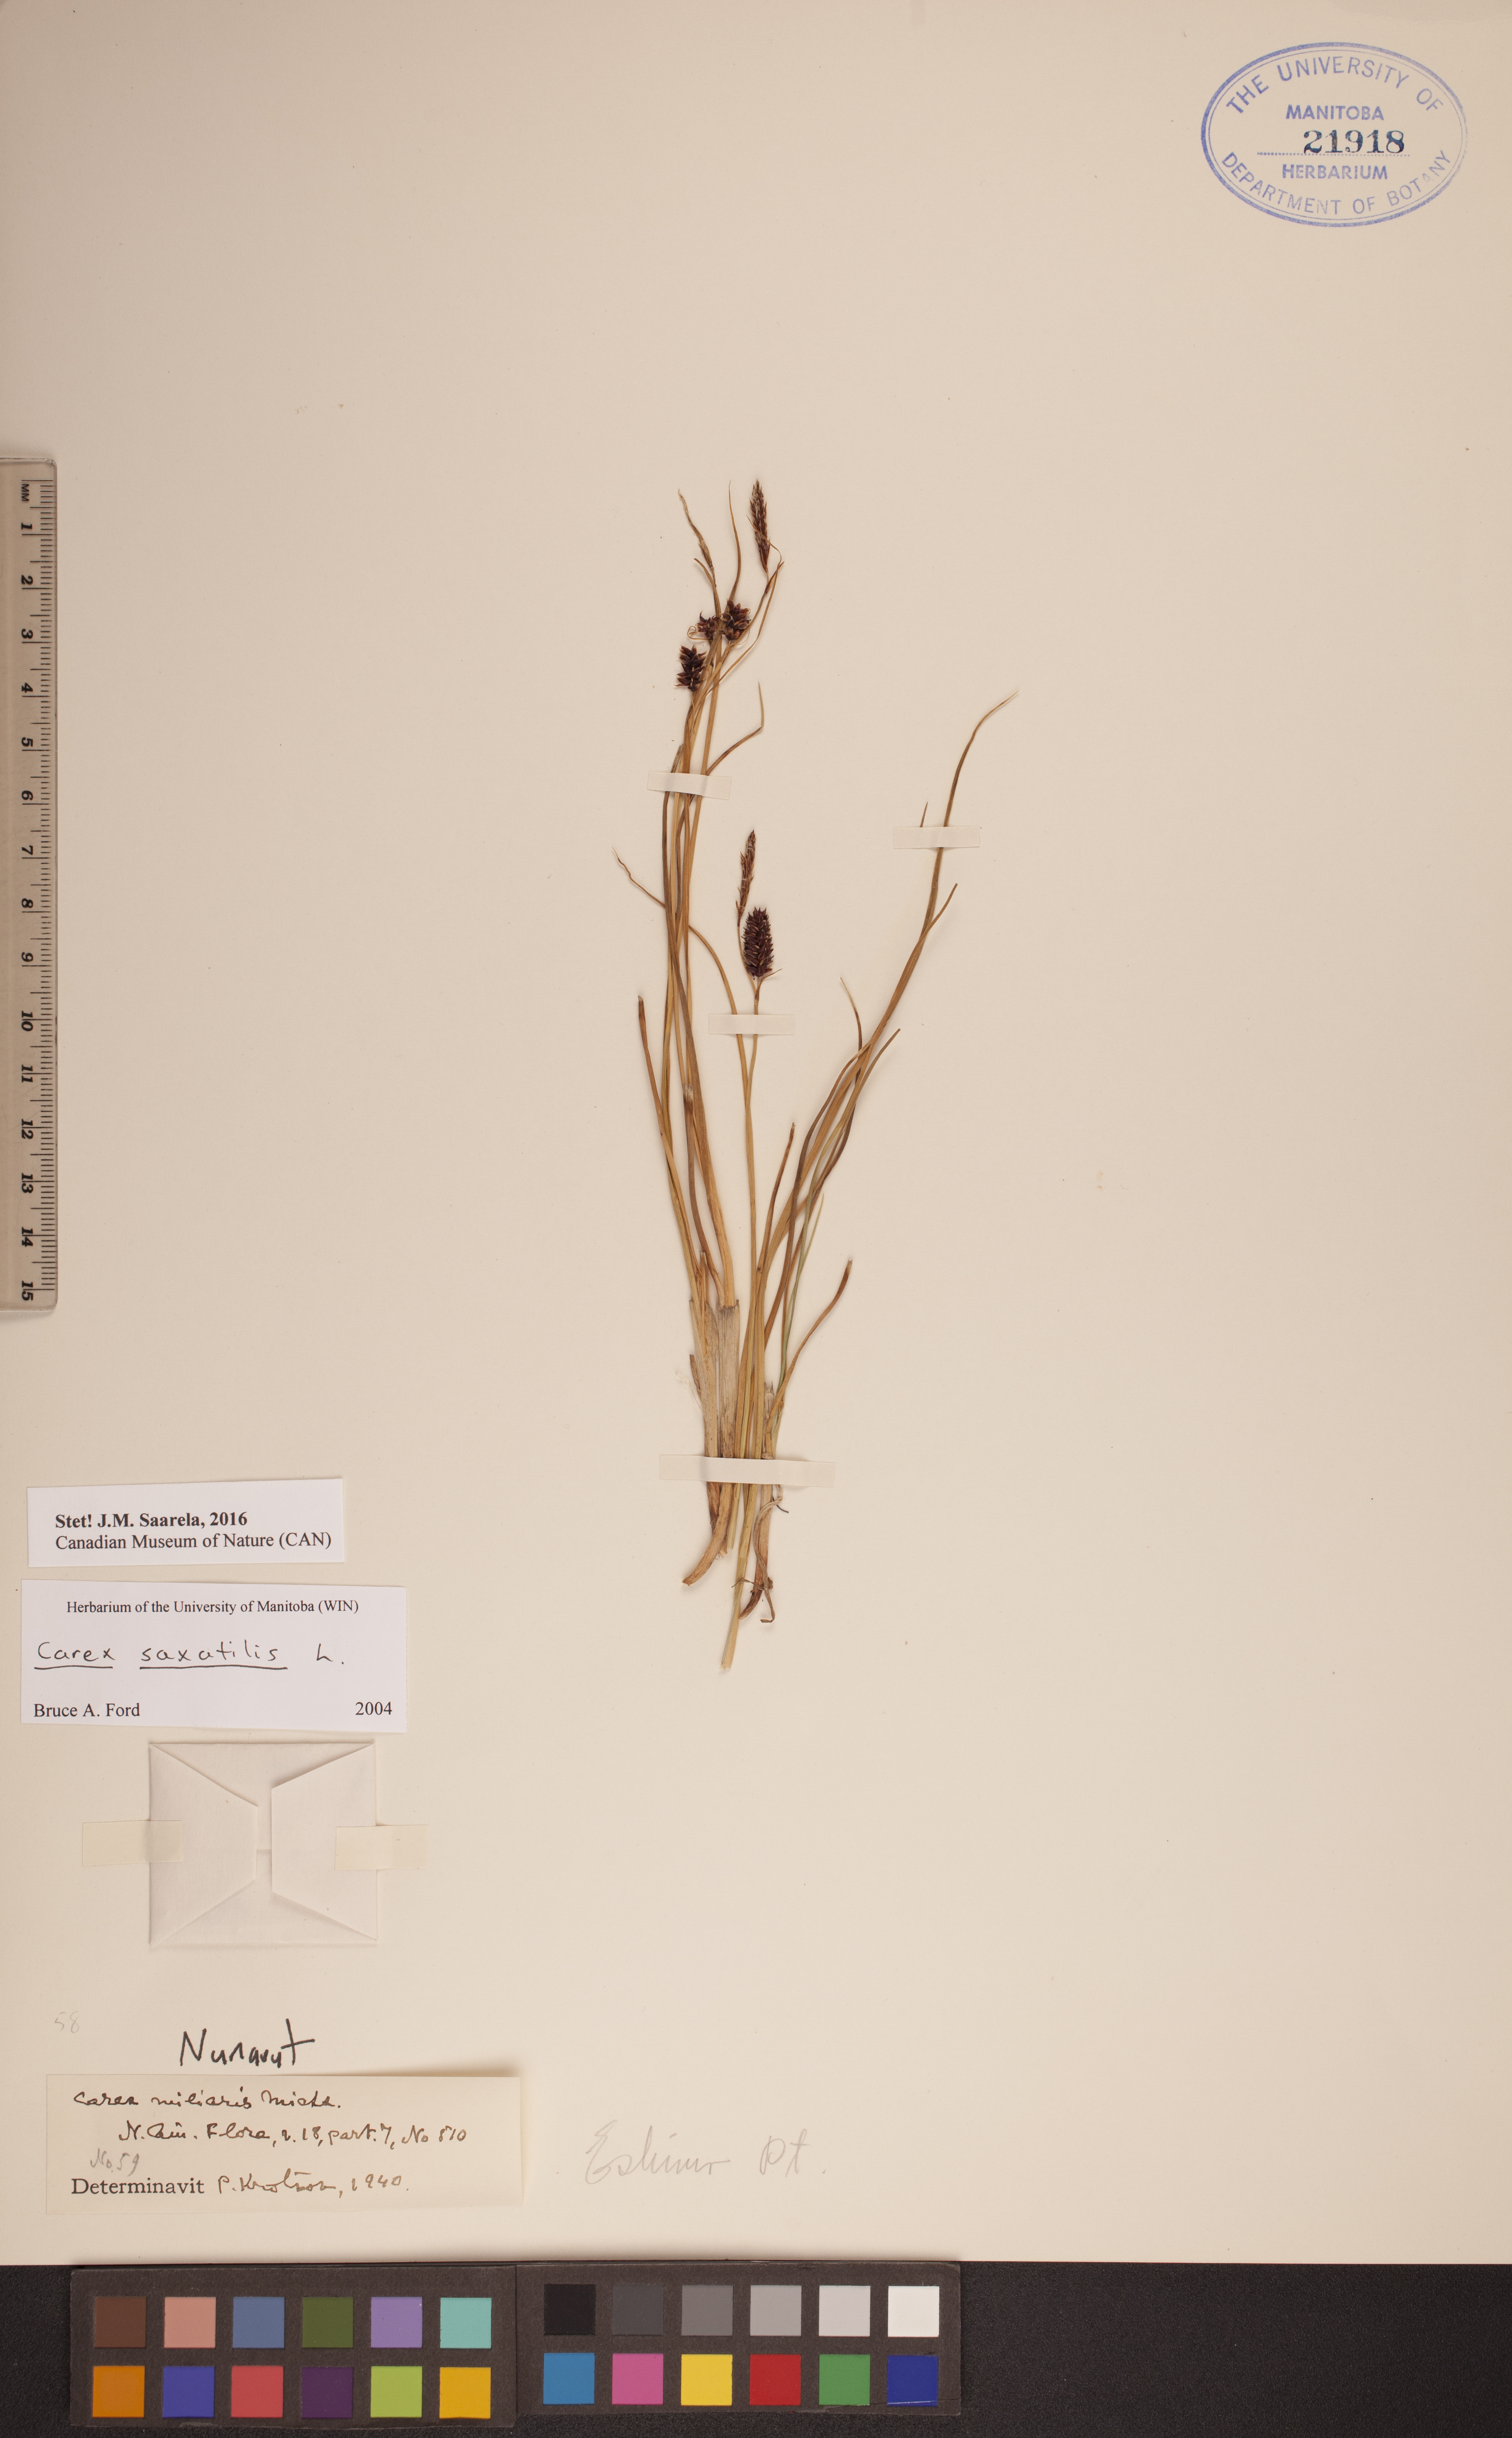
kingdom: Plantae
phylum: Tracheophyta
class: Liliopsida
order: Poales
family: Cyperaceae
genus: Carex
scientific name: Carex saxatilis
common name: Russet sedge
